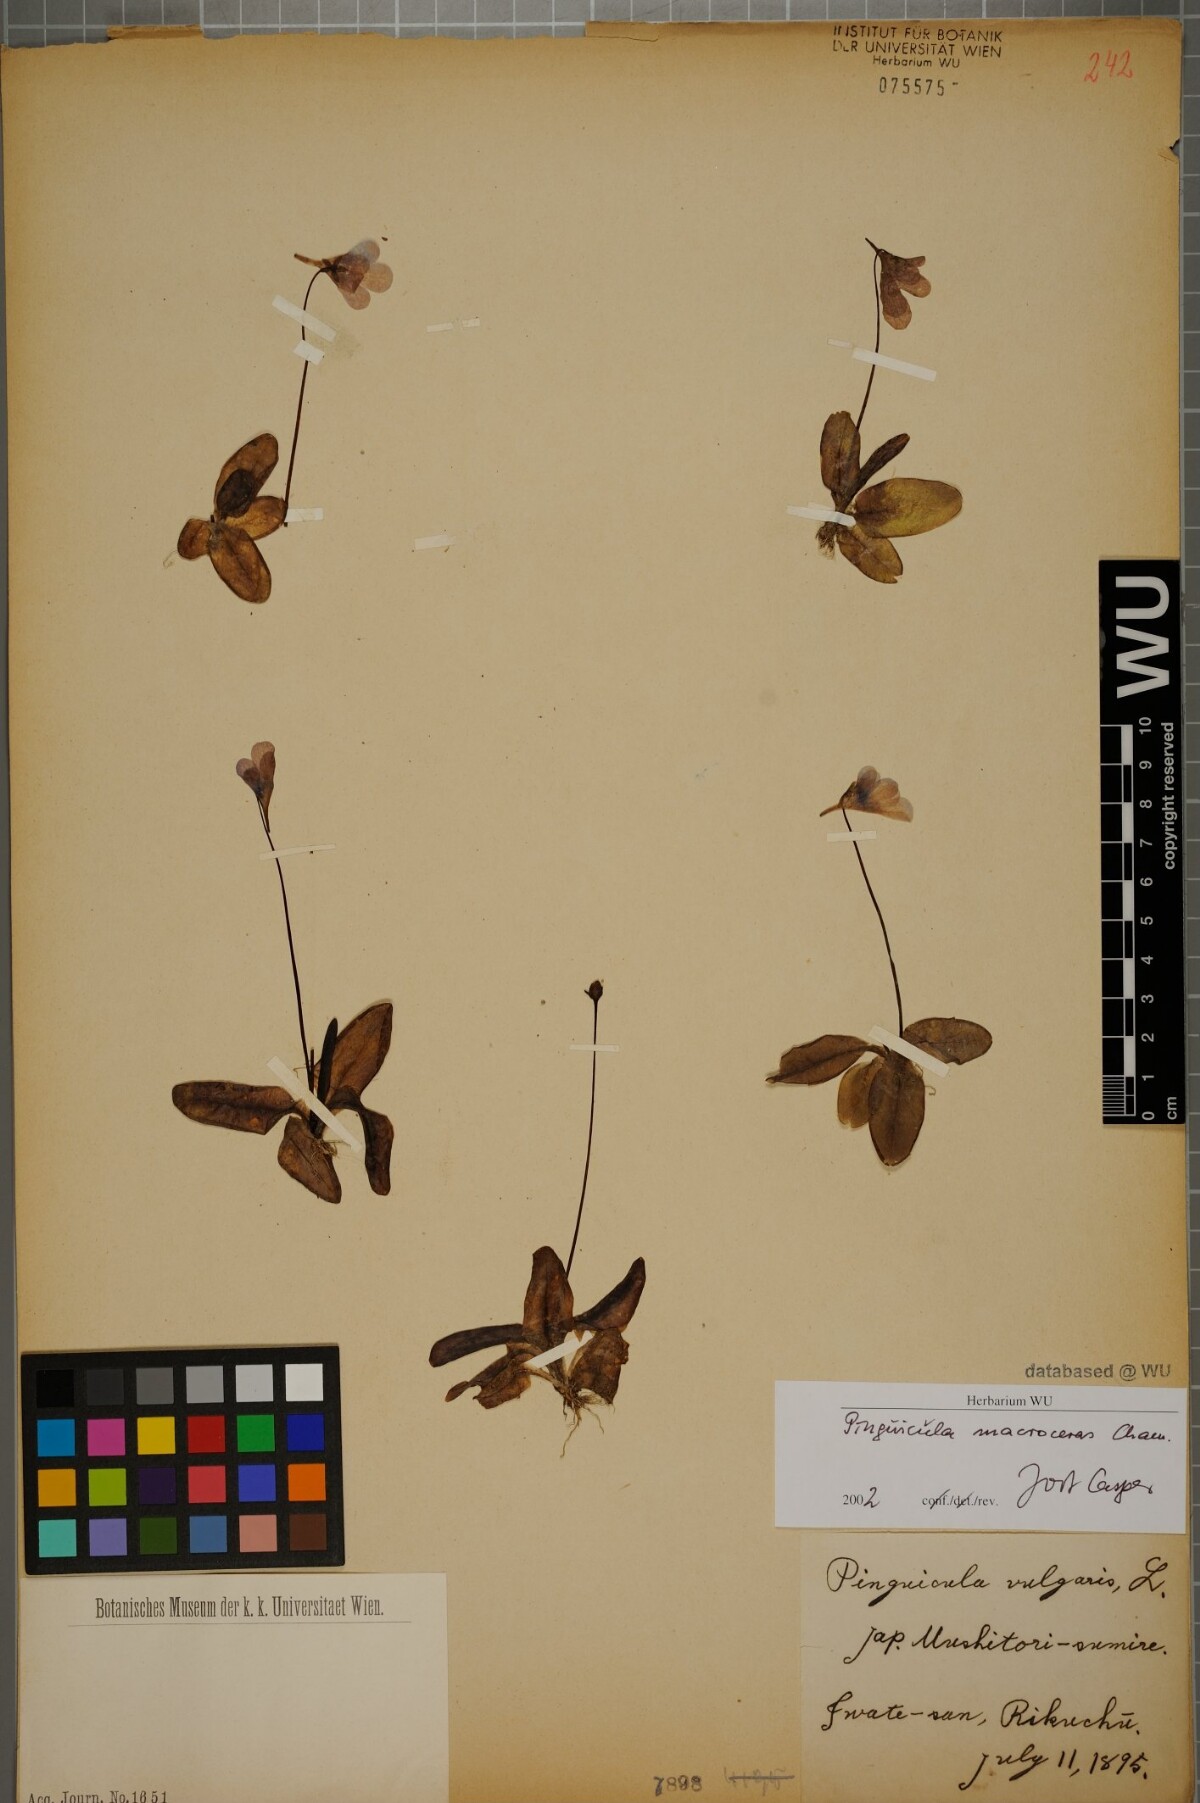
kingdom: Plantae
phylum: Tracheophyta
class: Magnoliopsida
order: Lamiales
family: Lentibulariaceae
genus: Pinguicula
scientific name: Pinguicula macroceras
